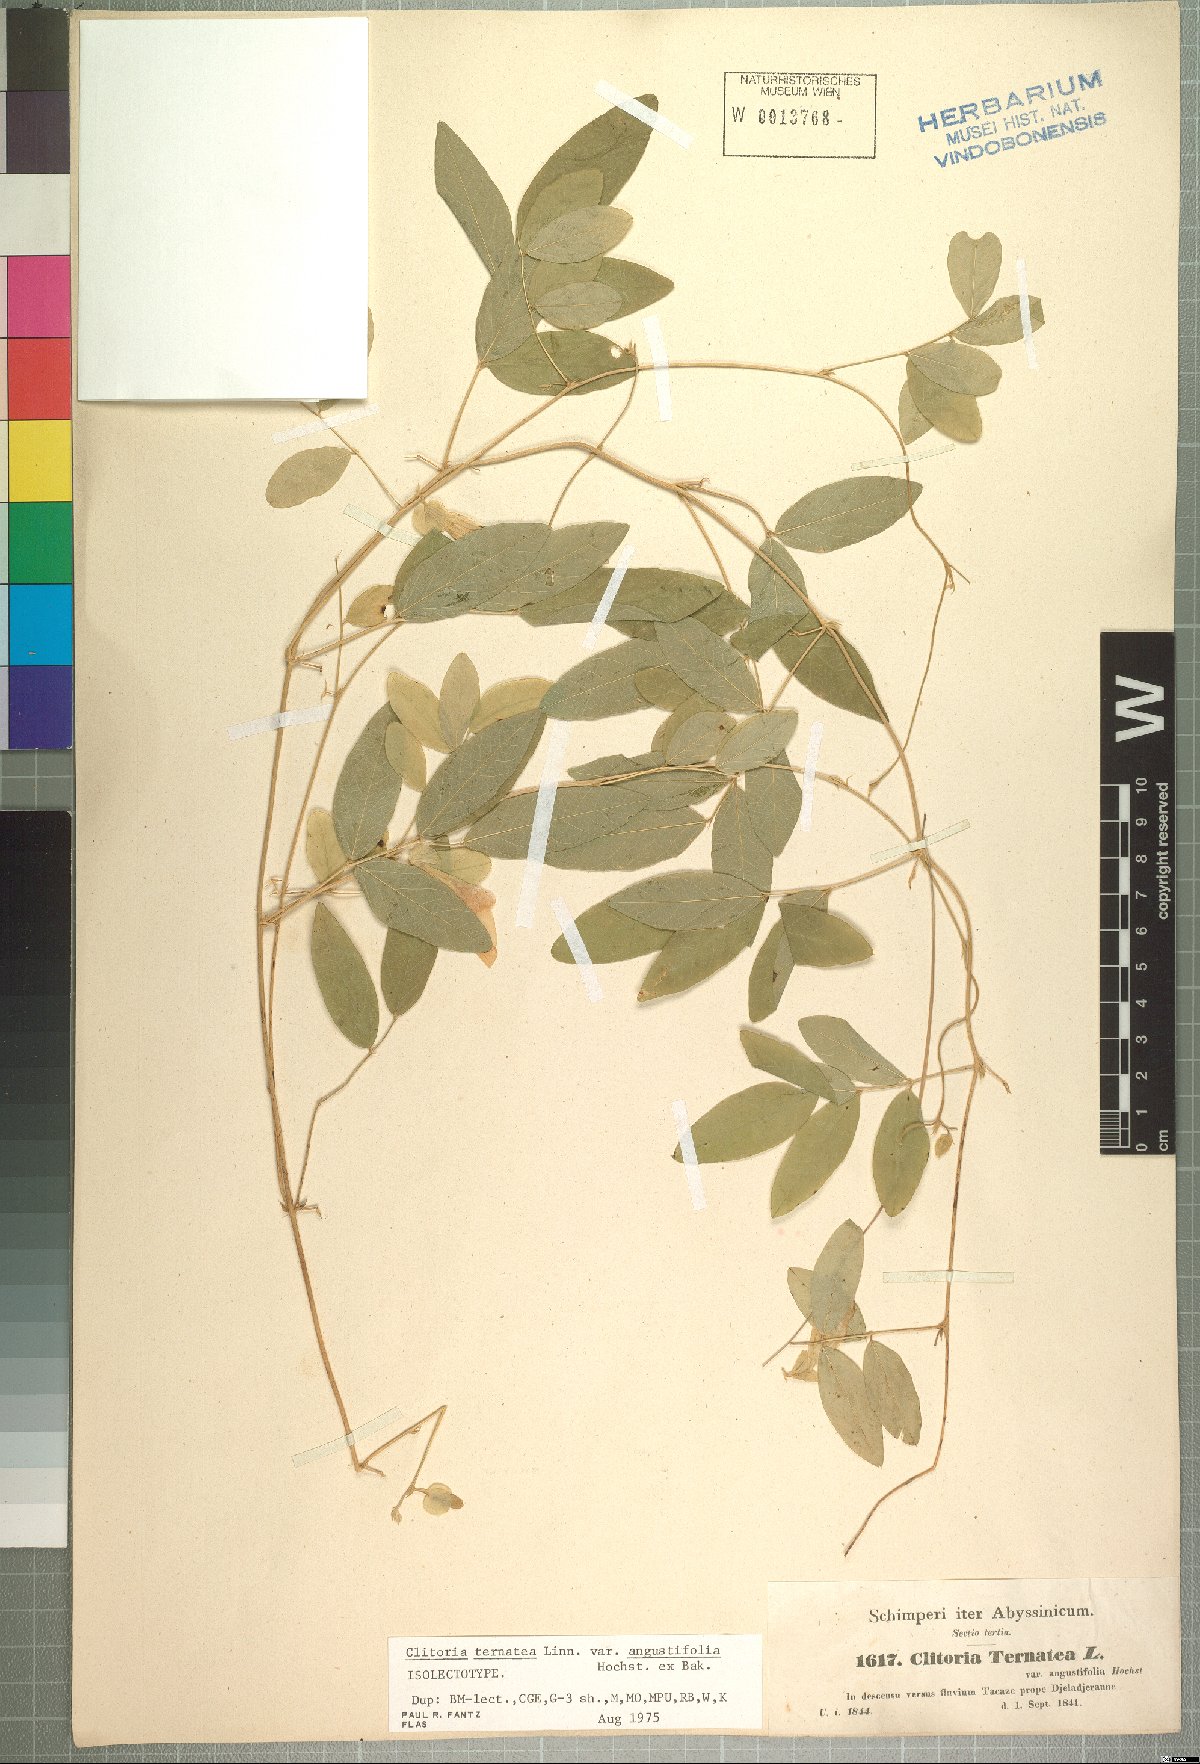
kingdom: Plantae
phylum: Tracheophyta
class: Magnoliopsida
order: Fabales
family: Fabaceae
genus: Clitoria
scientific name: Clitoria ternatea
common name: Asian pigeonwings
